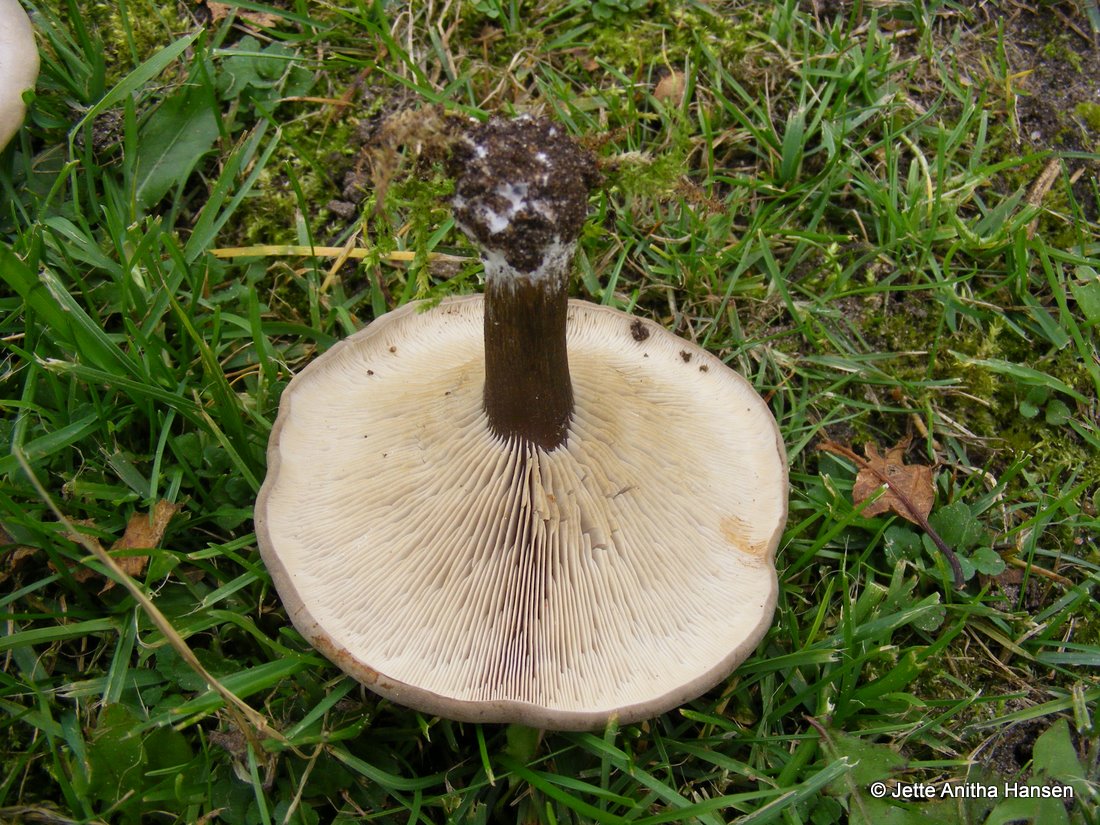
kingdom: Fungi
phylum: Basidiomycota
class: Agaricomycetes
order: Agaricales
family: Tricholomataceae
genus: Melanoleuca
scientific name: Melanoleuca exscissa
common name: gusten munkehat
